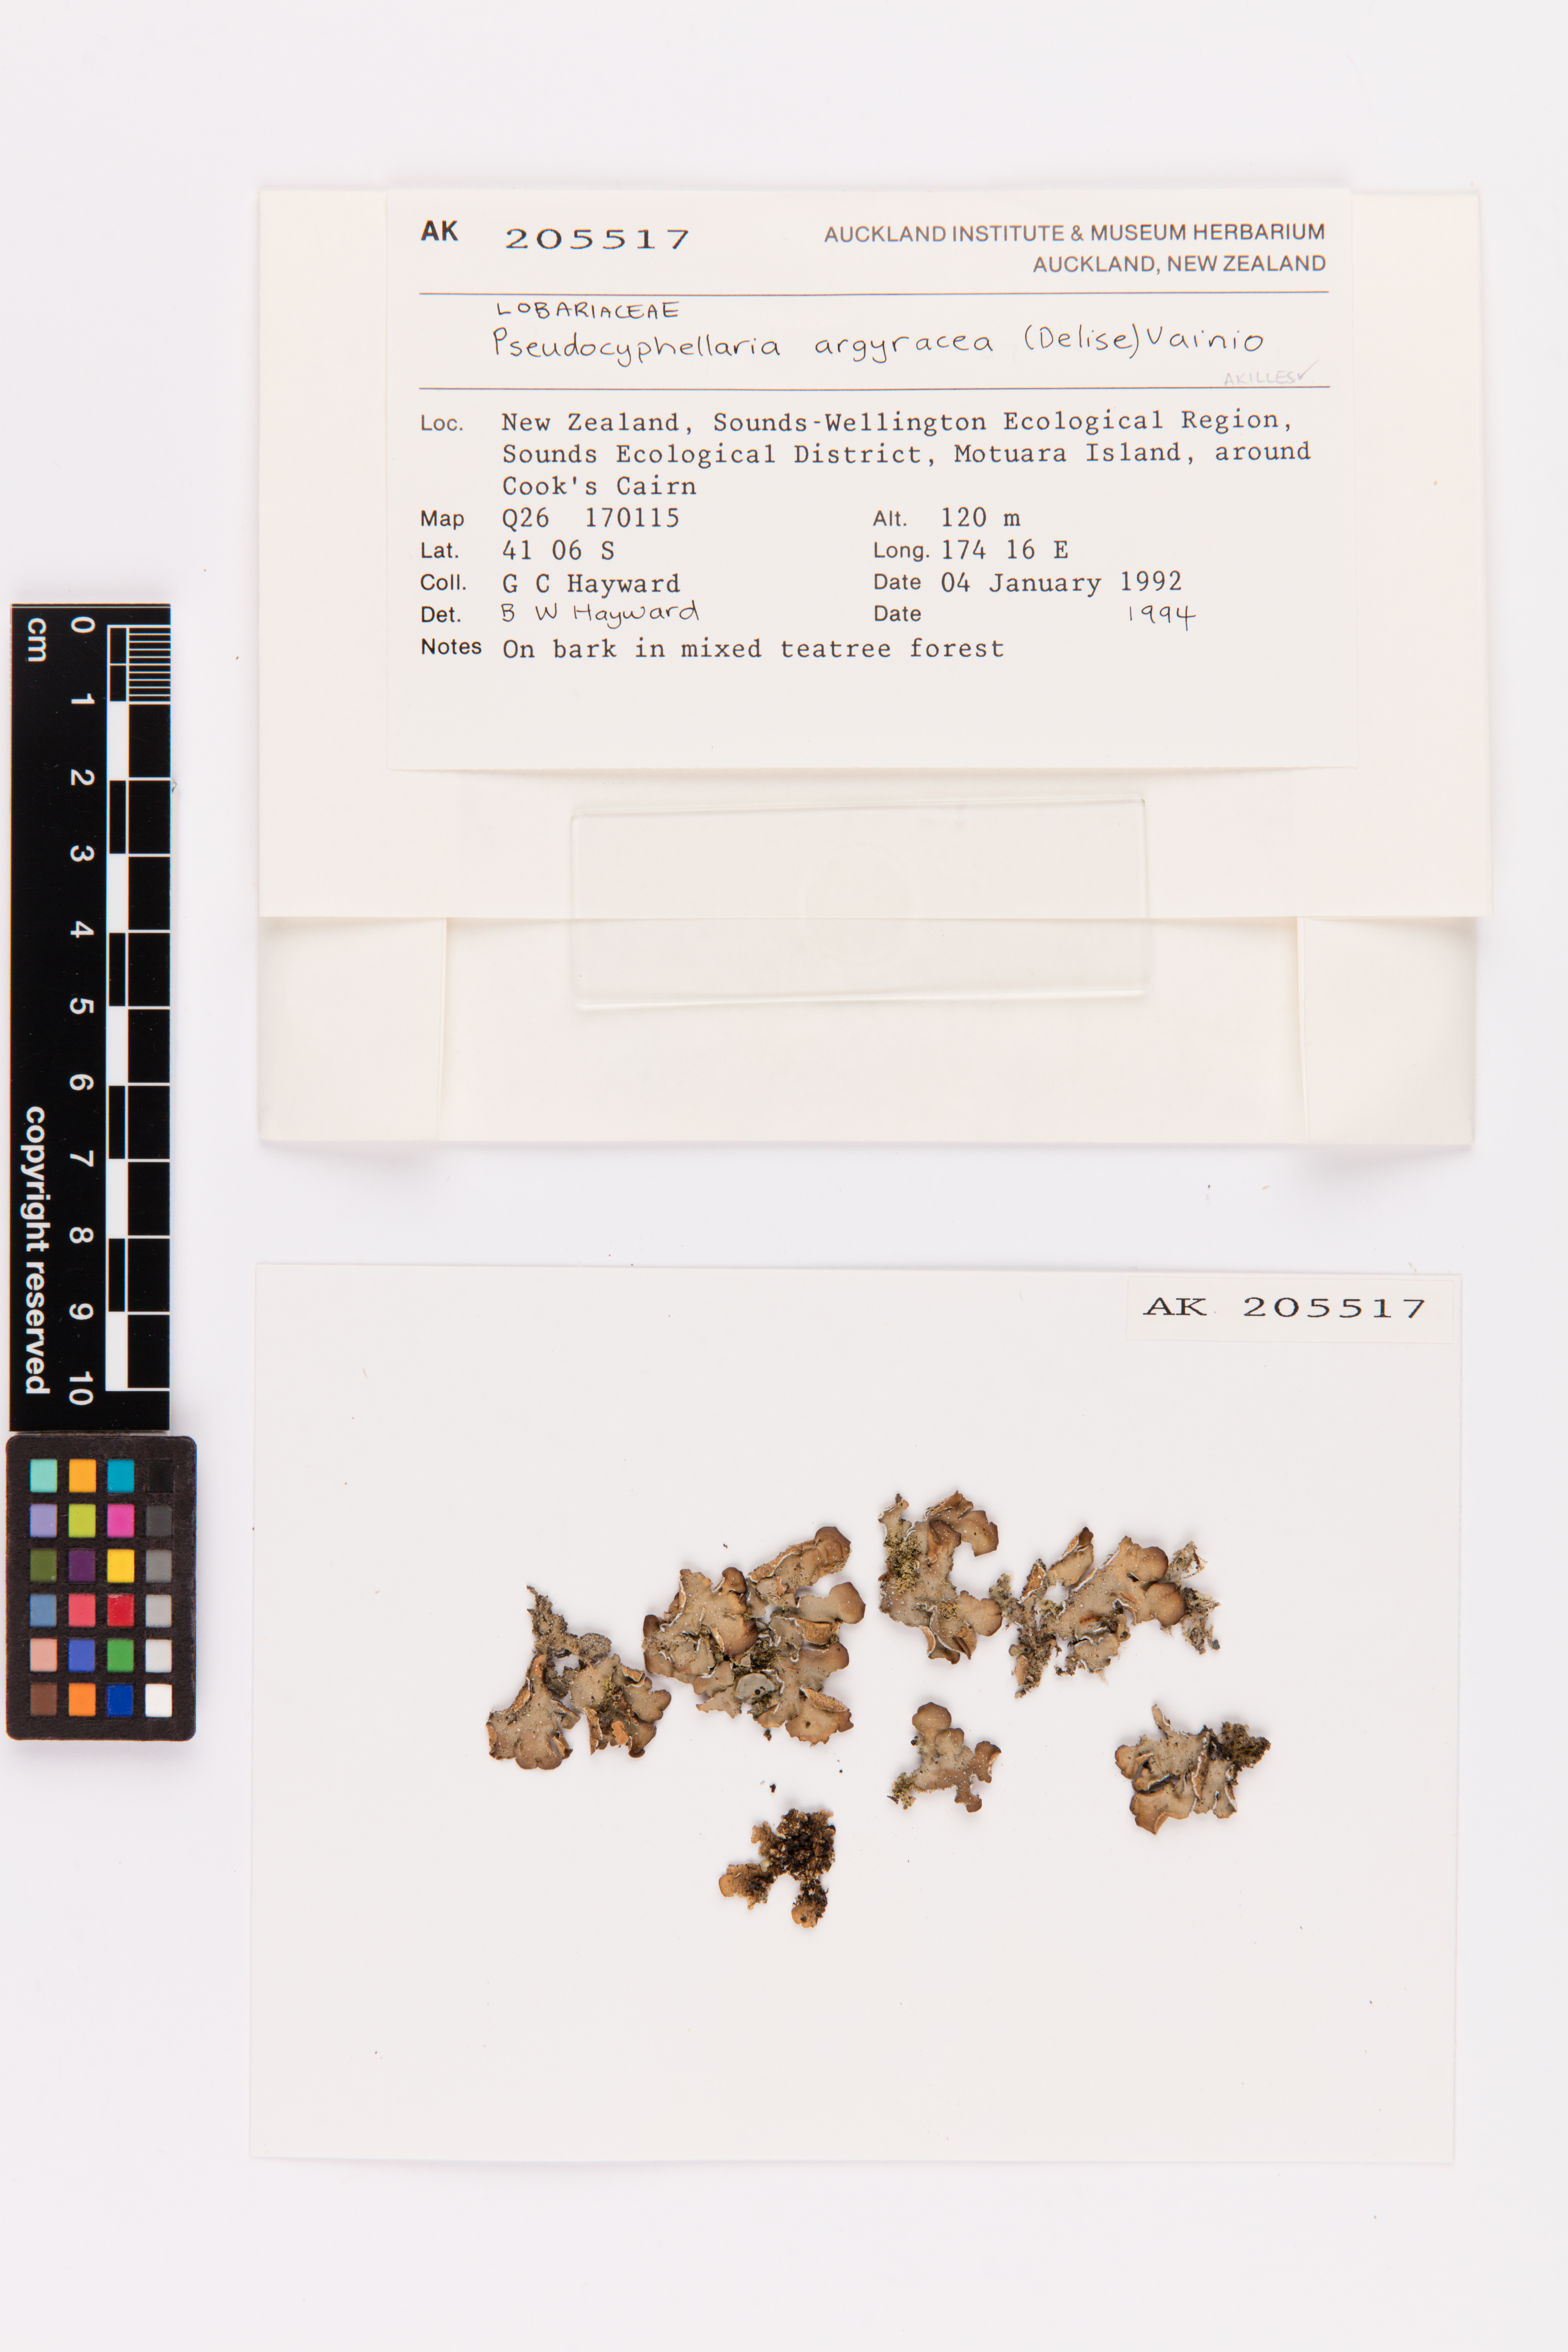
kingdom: Fungi
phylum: Ascomycota
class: Lecanoromycetes
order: Peltigerales
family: Lobariaceae
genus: Pseudocyphellaria
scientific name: Pseudocyphellaria argyracea
